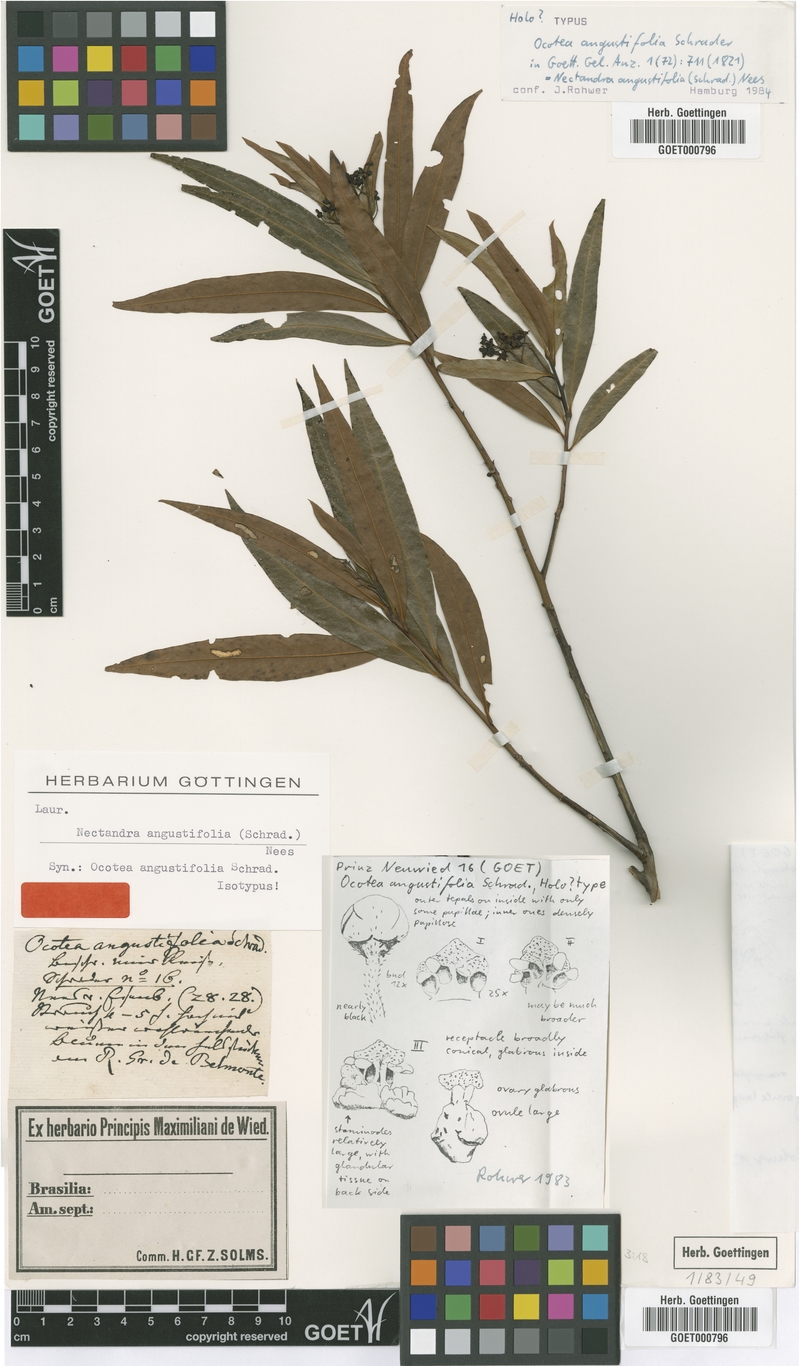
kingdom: Plantae
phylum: Tracheophyta
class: Magnoliopsida
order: Laurales
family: Lauraceae
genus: Nectandra
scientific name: Nectandra angustifolia
